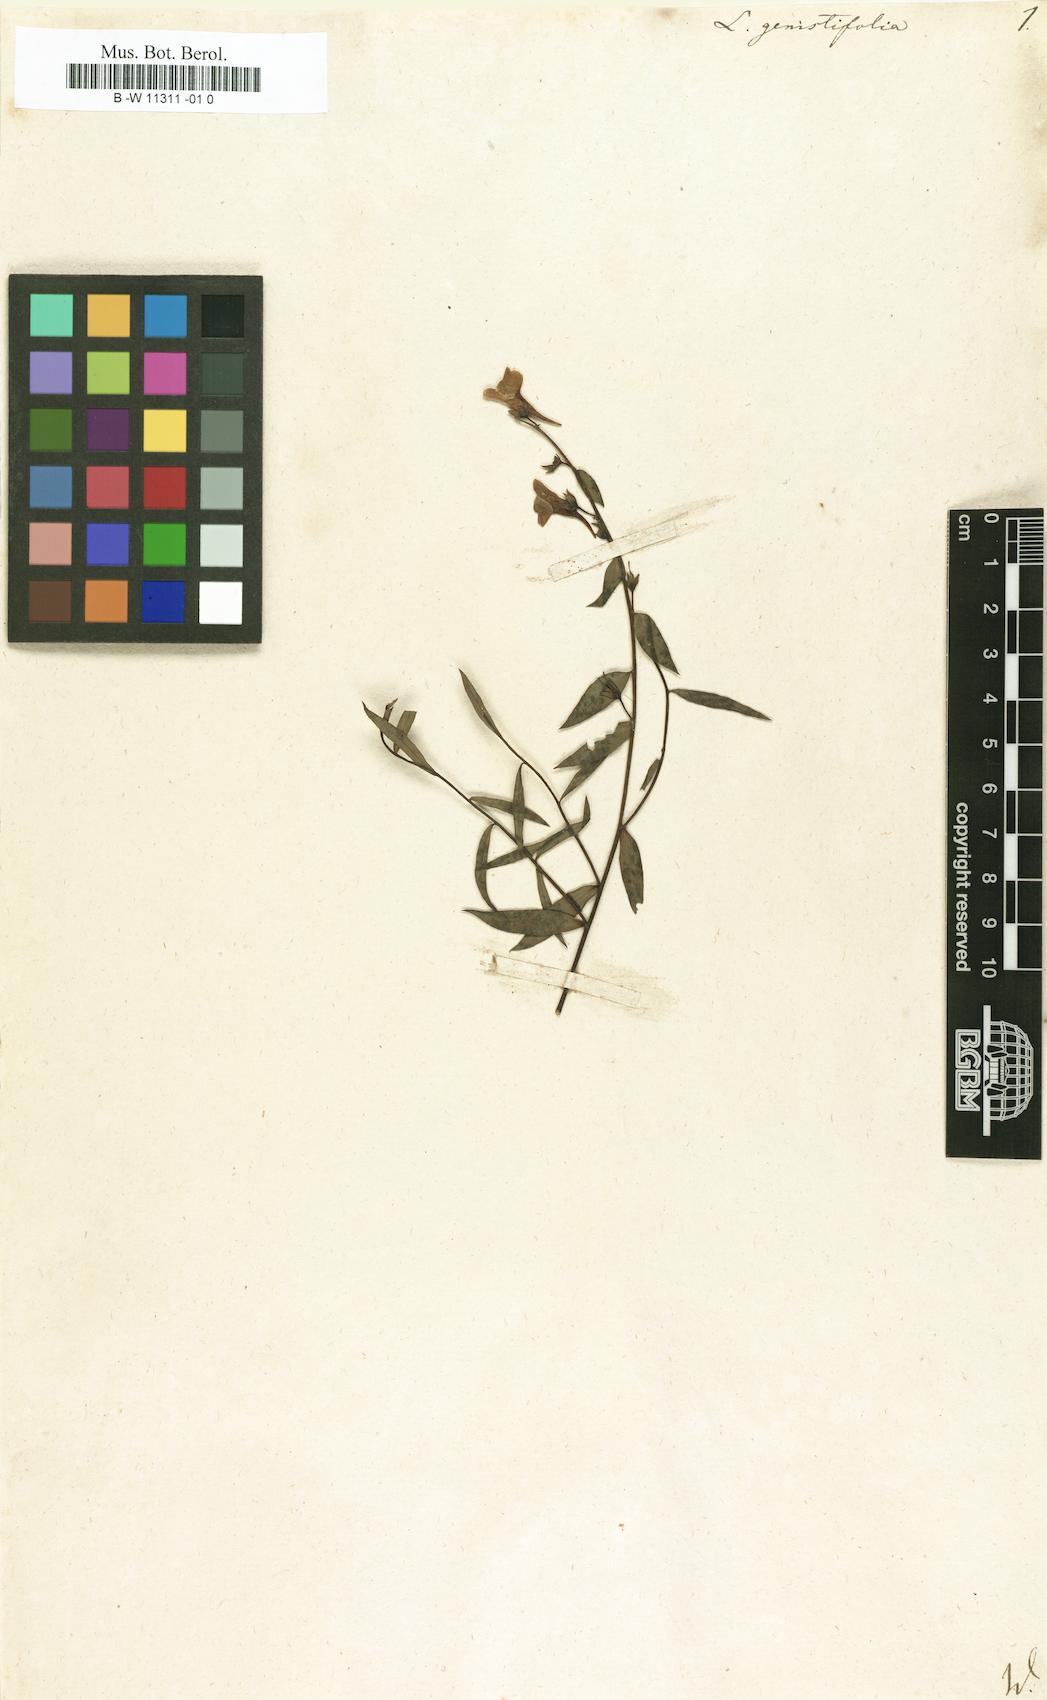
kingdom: Plantae
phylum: Tracheophyta
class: Magnoliopsida
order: Lamiales
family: Plantaginaceae
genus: Linaria
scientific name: Linaria genistifolia
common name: Broomleaf toadflax
